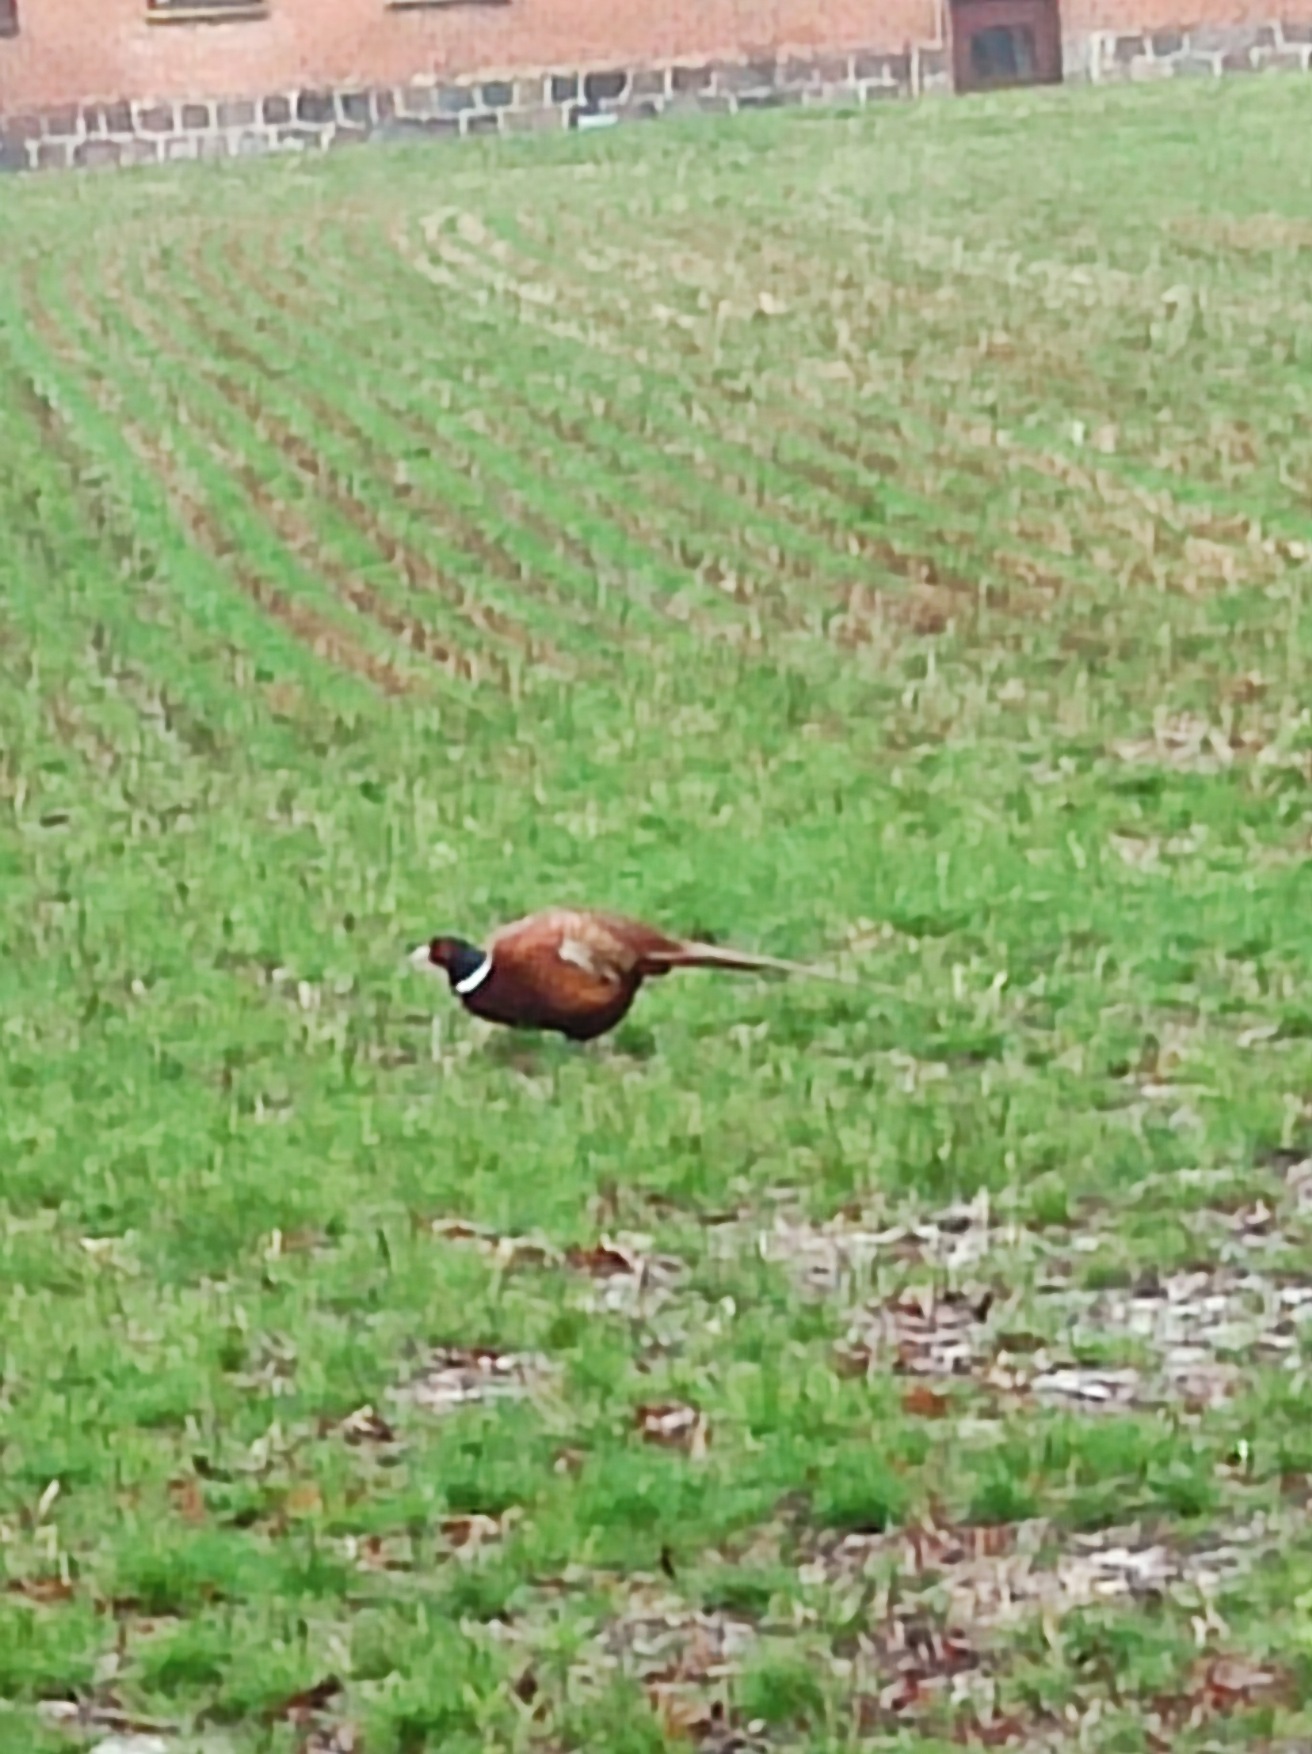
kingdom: Animalia
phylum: Chordata
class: Aves
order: Galliformes
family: Phasianidae
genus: Phasianus
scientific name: Phasianus colchicus
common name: Fasan
